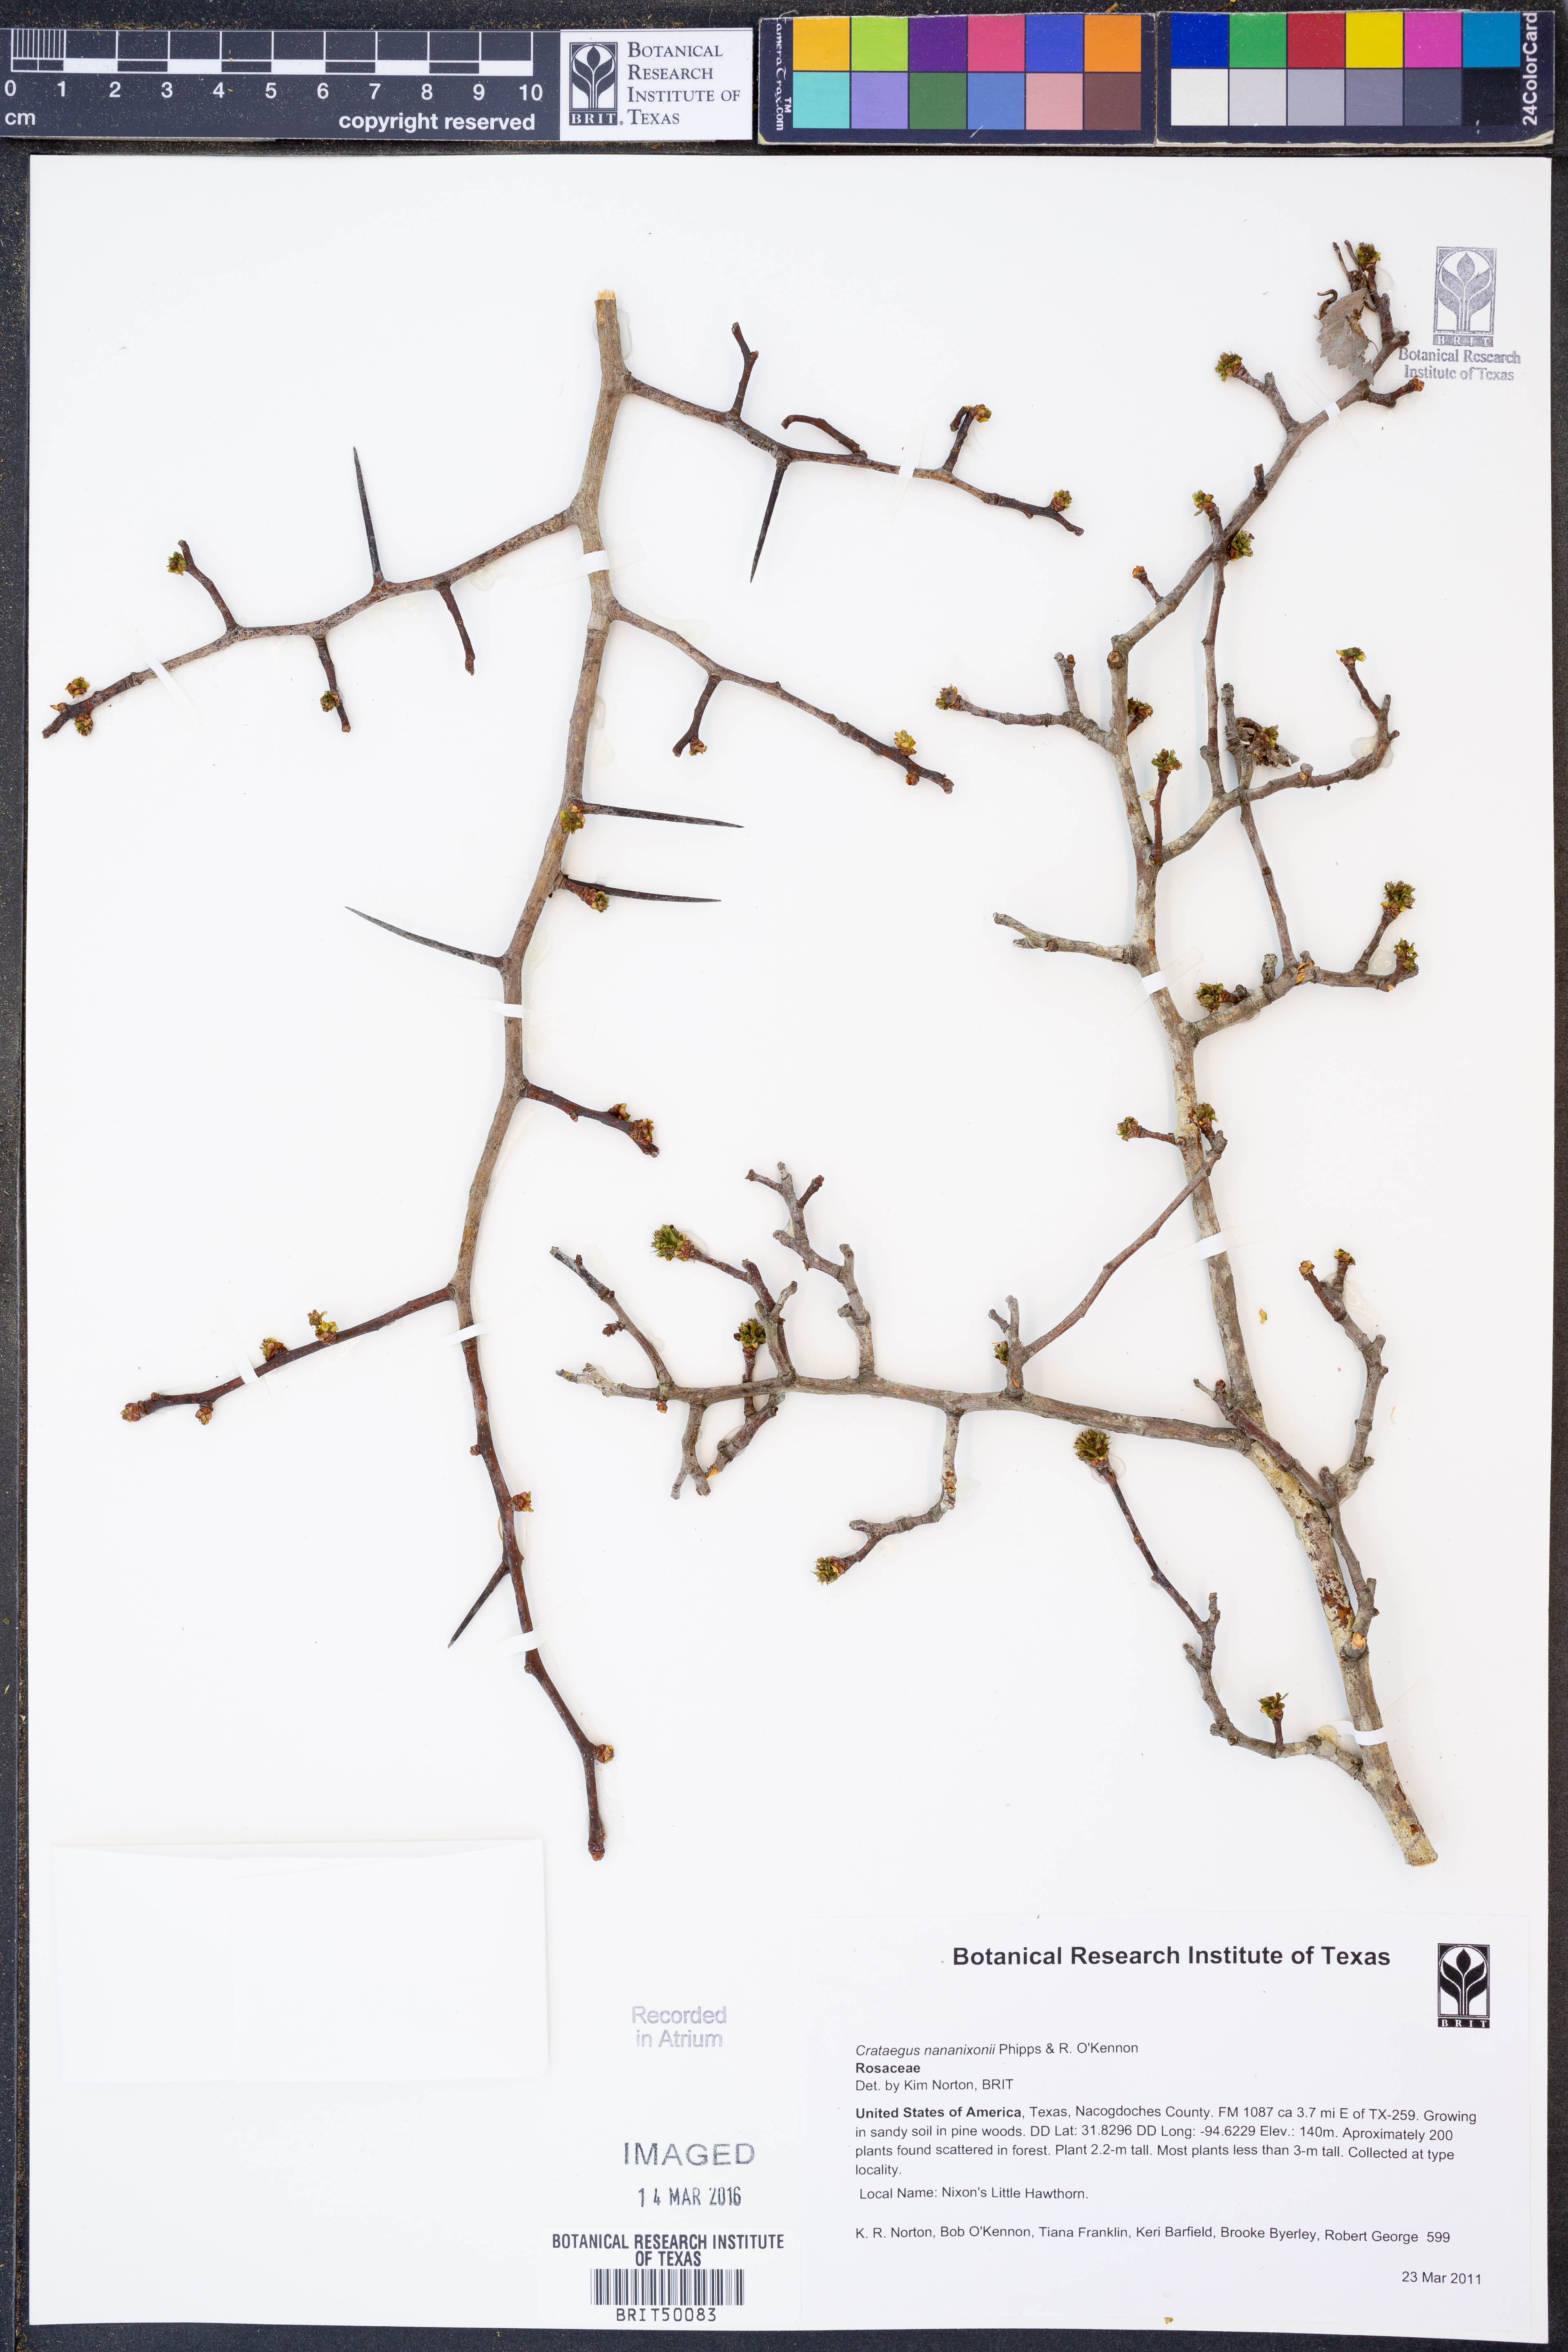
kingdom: Plantae
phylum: Tracheophyta
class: Magnoliopsida
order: Rosales
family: Rosaceae
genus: Crataegus
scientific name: Crataegus nananixonii
